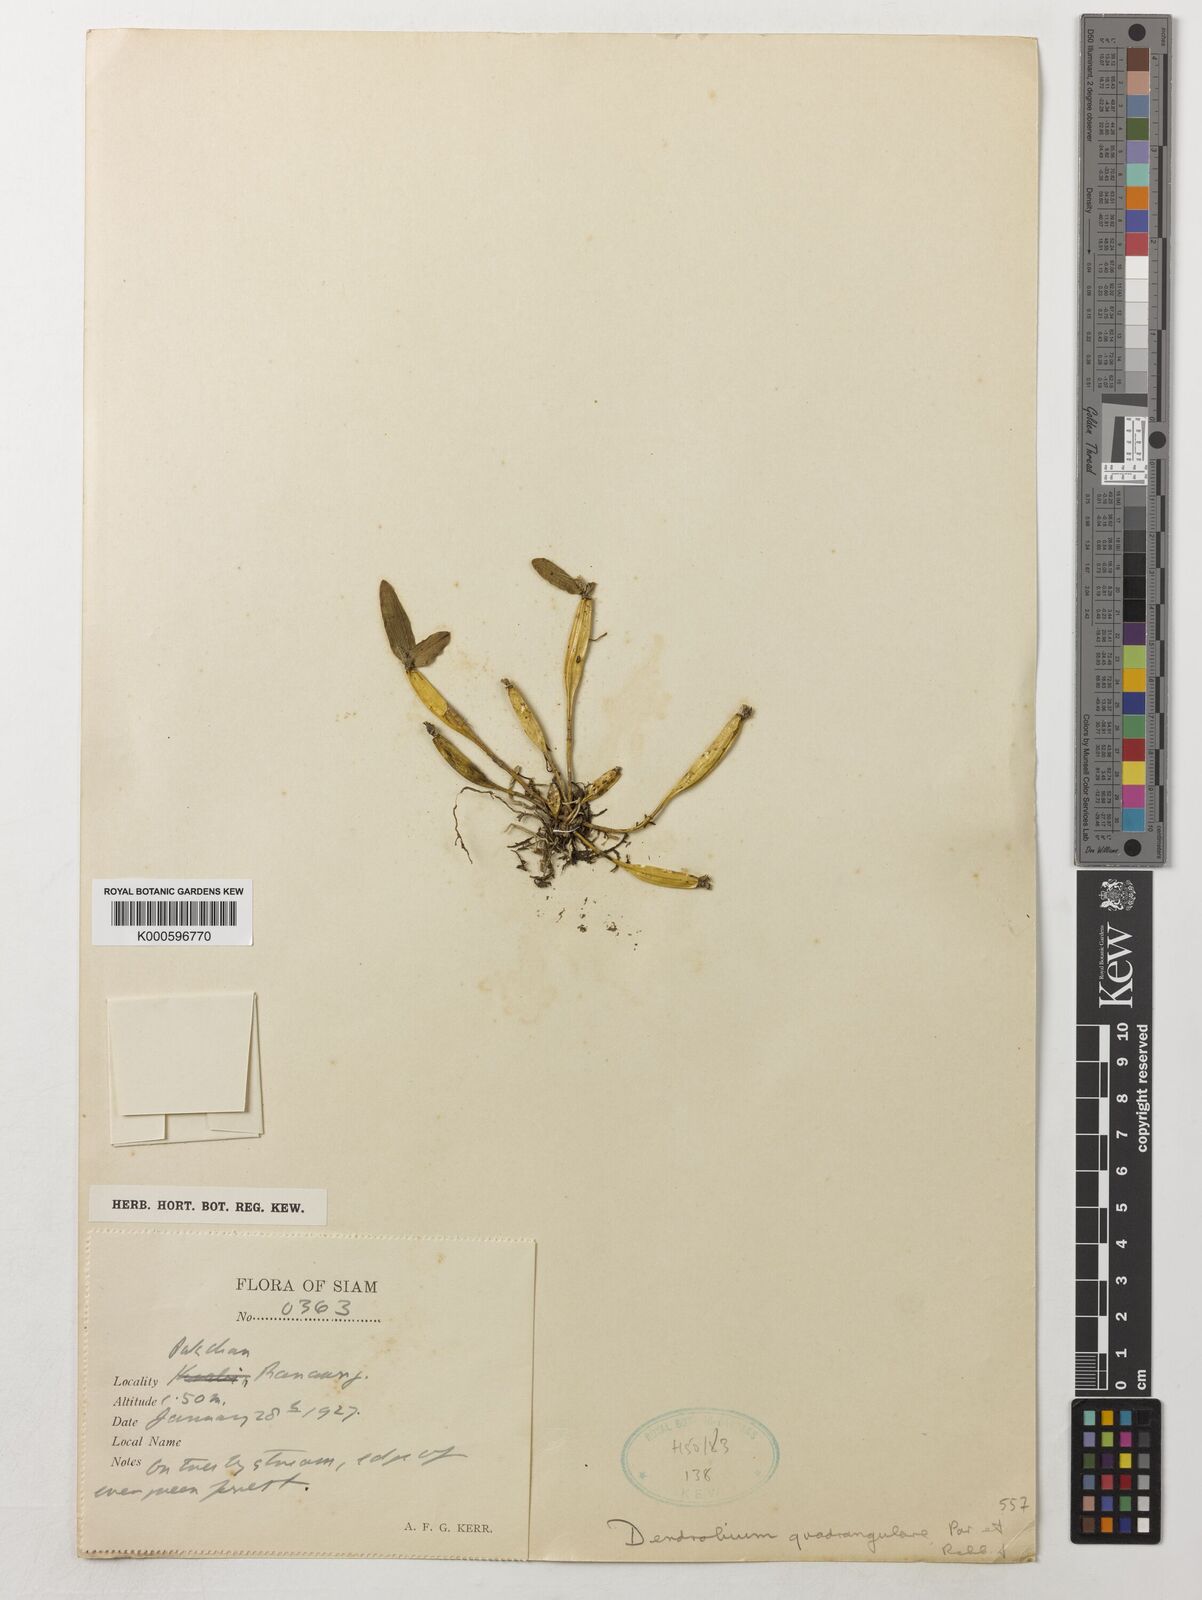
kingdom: Plantae
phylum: Tracheophyta
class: Liliopsida
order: Asparagales
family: Orchidaceae
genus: Dendrobium
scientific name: Dendrobium hymenanthum
